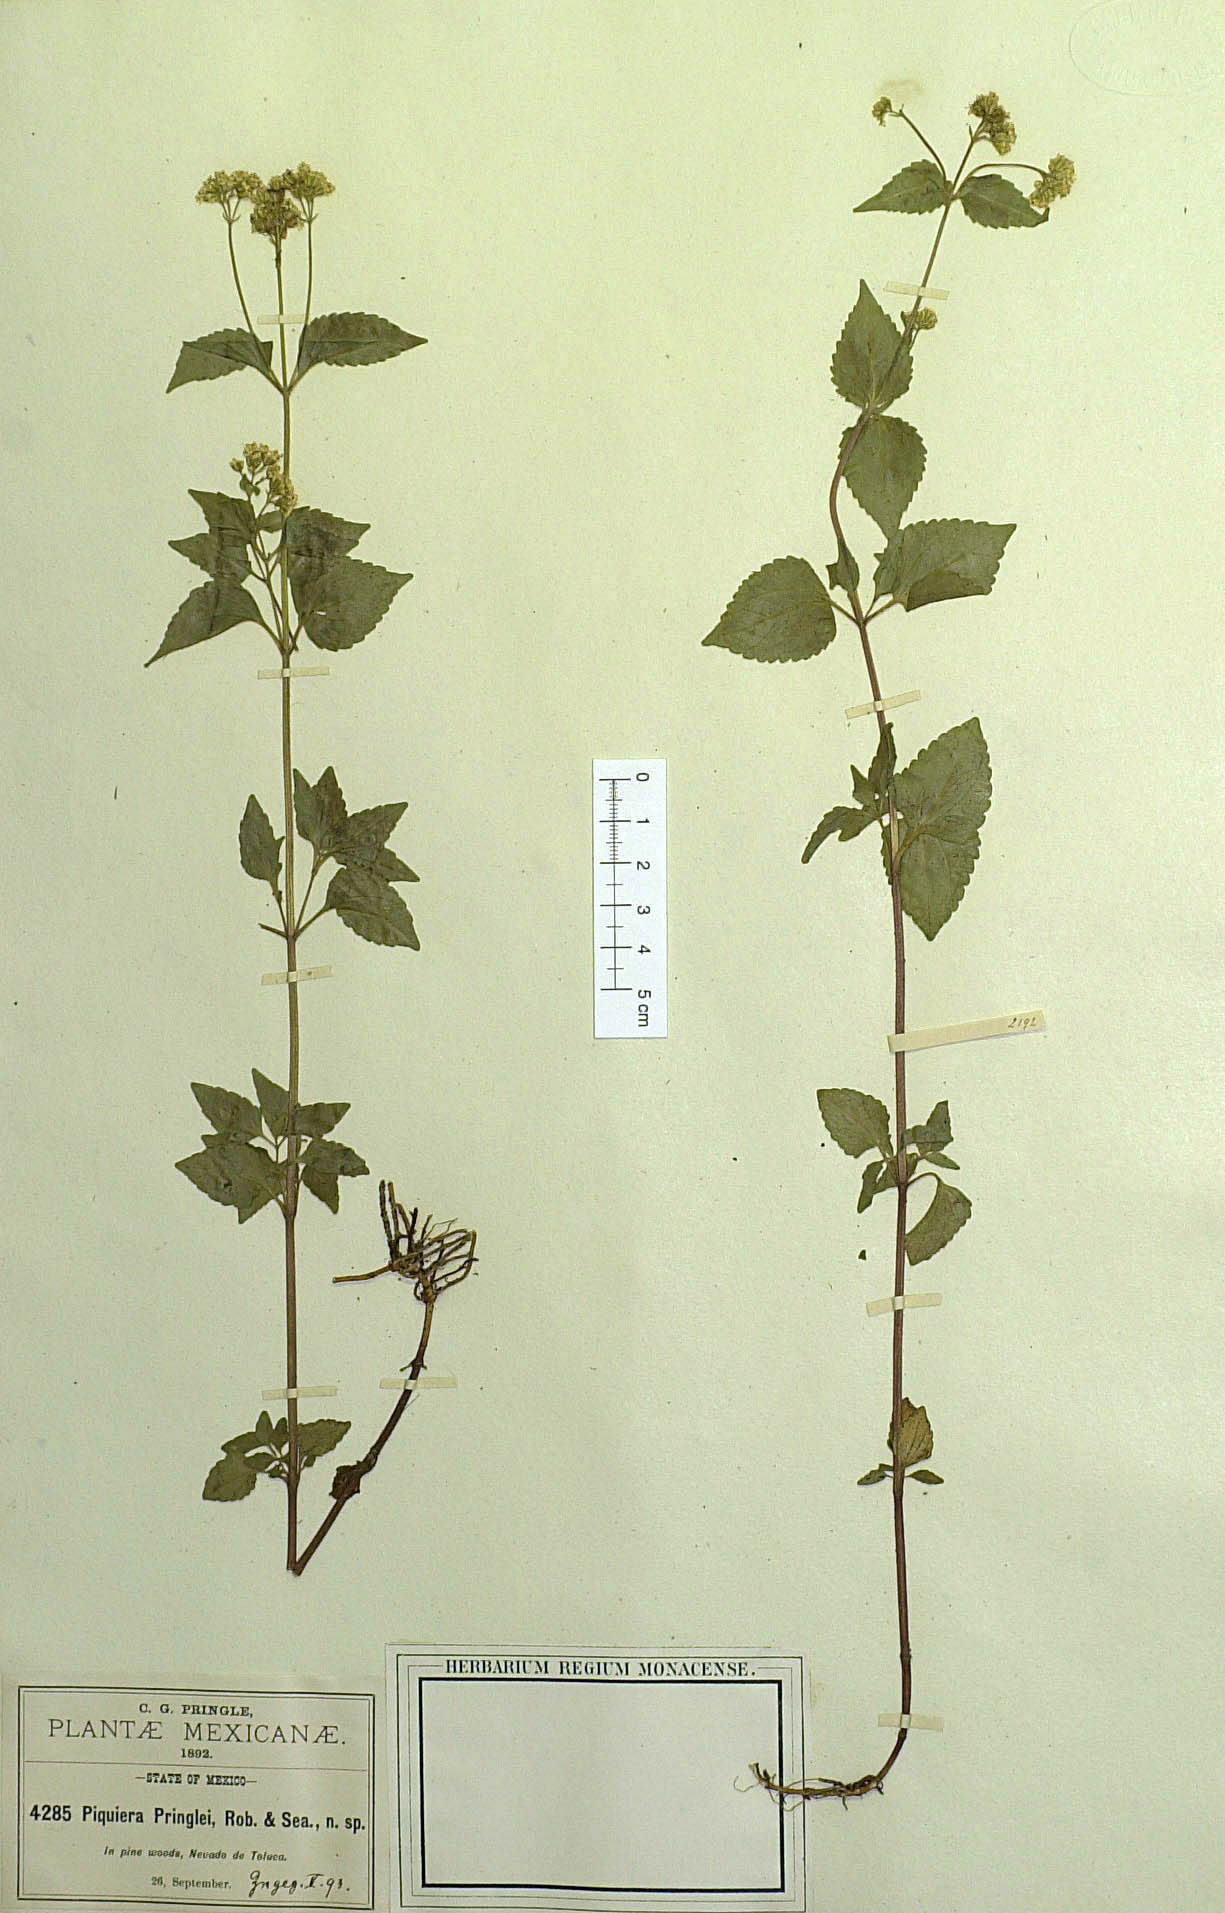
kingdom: Plantae
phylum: Tracheophyta
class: Magnoliopsida
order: Asterales
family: Asteraceae
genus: Piqueria
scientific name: Piqueria pilosa
